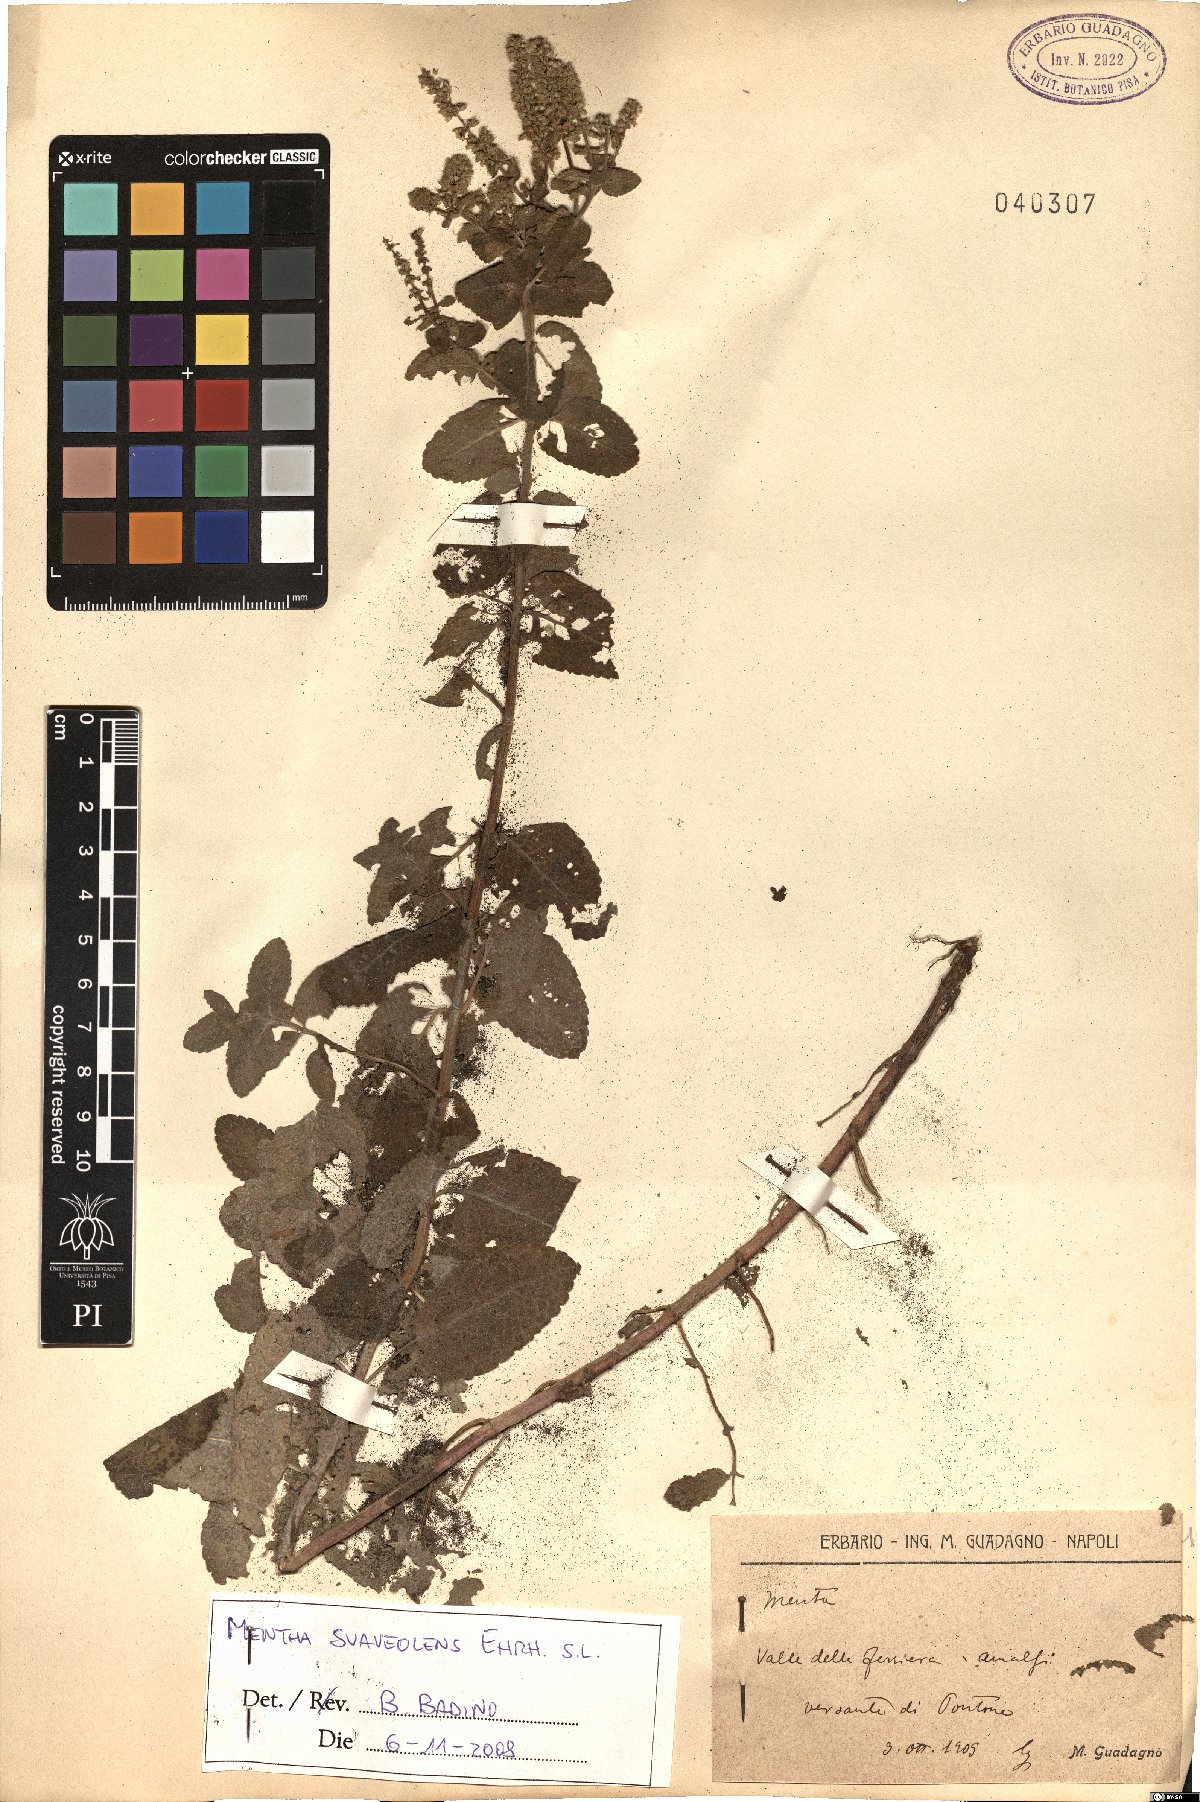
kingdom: Plantae
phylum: Tracheophyta
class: Magnoliopsida
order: Lamiales
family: Lamiaceae
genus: Mentha
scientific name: Mentha suaveolens
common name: Apple mint
